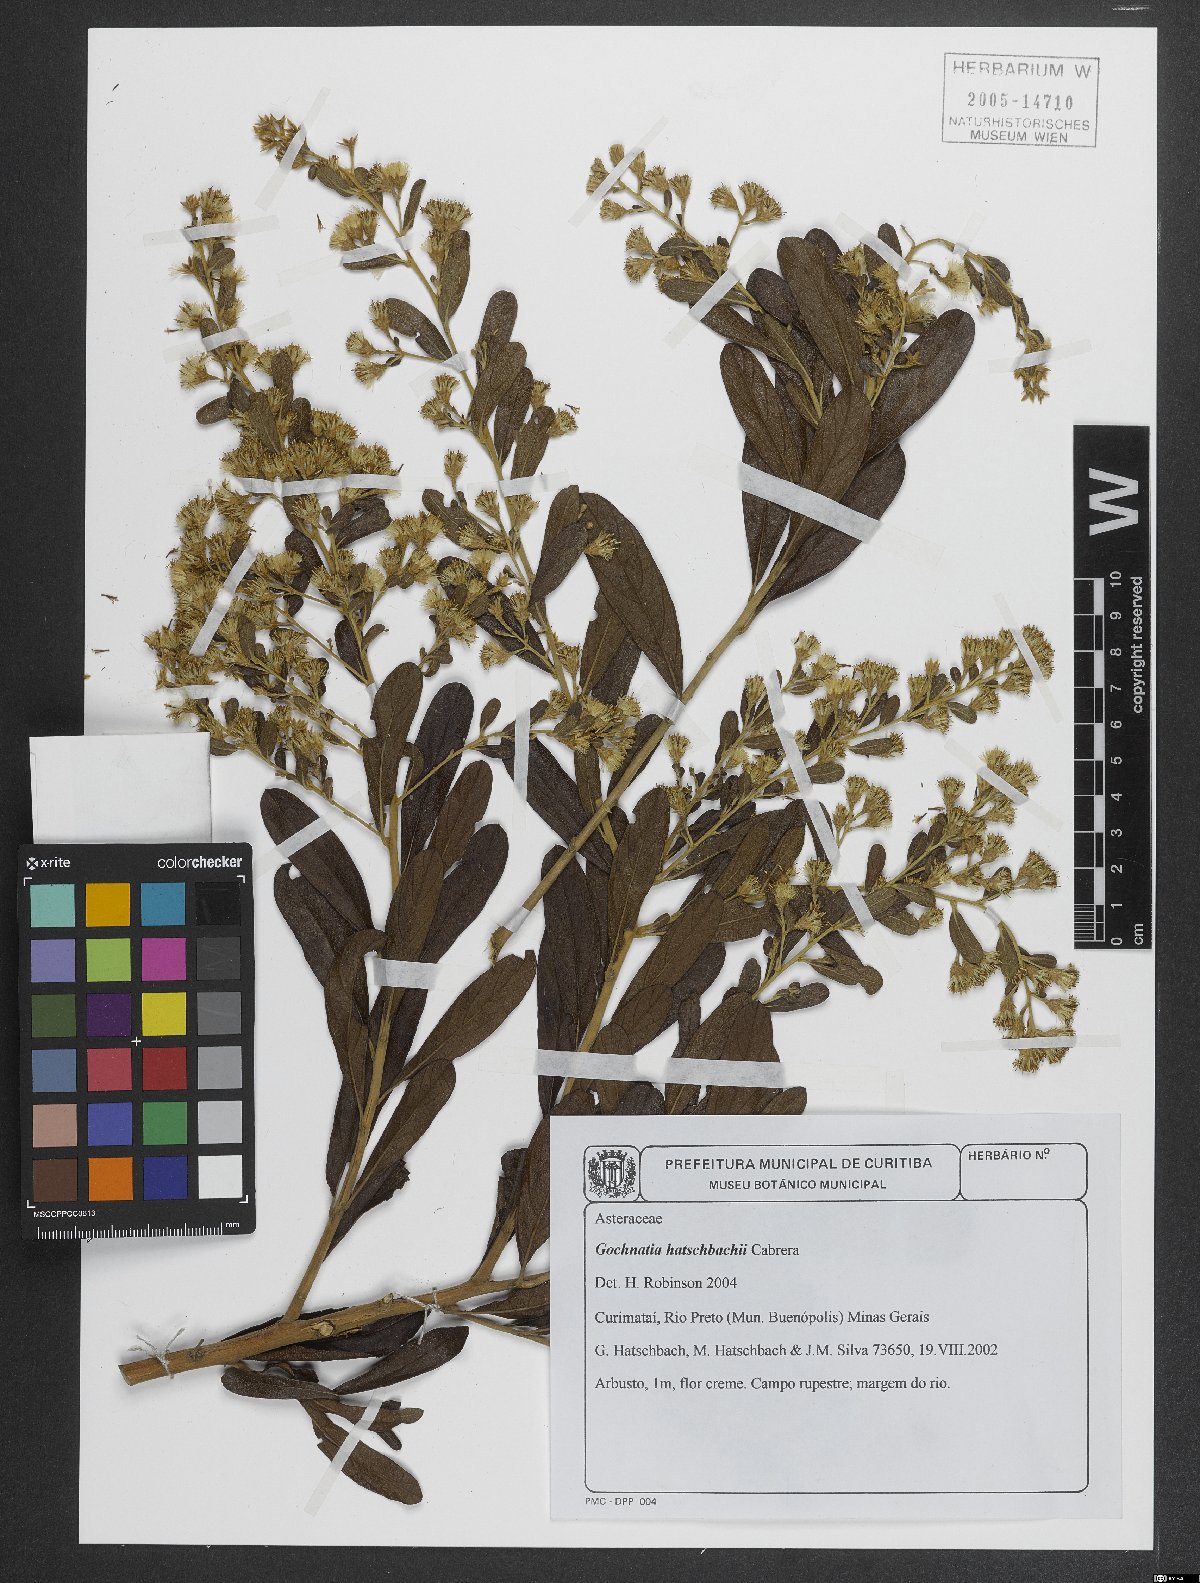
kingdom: Plantae
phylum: Tracheophyta
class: Magnoliopsida
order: Asterales
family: Asteraceae
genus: Moquiniastrum
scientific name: Moquiniastrum hatschbachii
